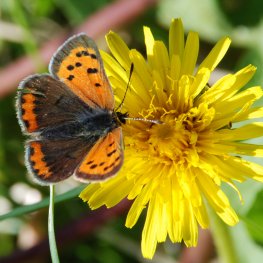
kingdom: Animalia
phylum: Arthropoda
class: Insecta
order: Lepidoptera
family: Lycaenidae
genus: Lycaena
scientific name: Lycaena phlaeas
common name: American Copper
